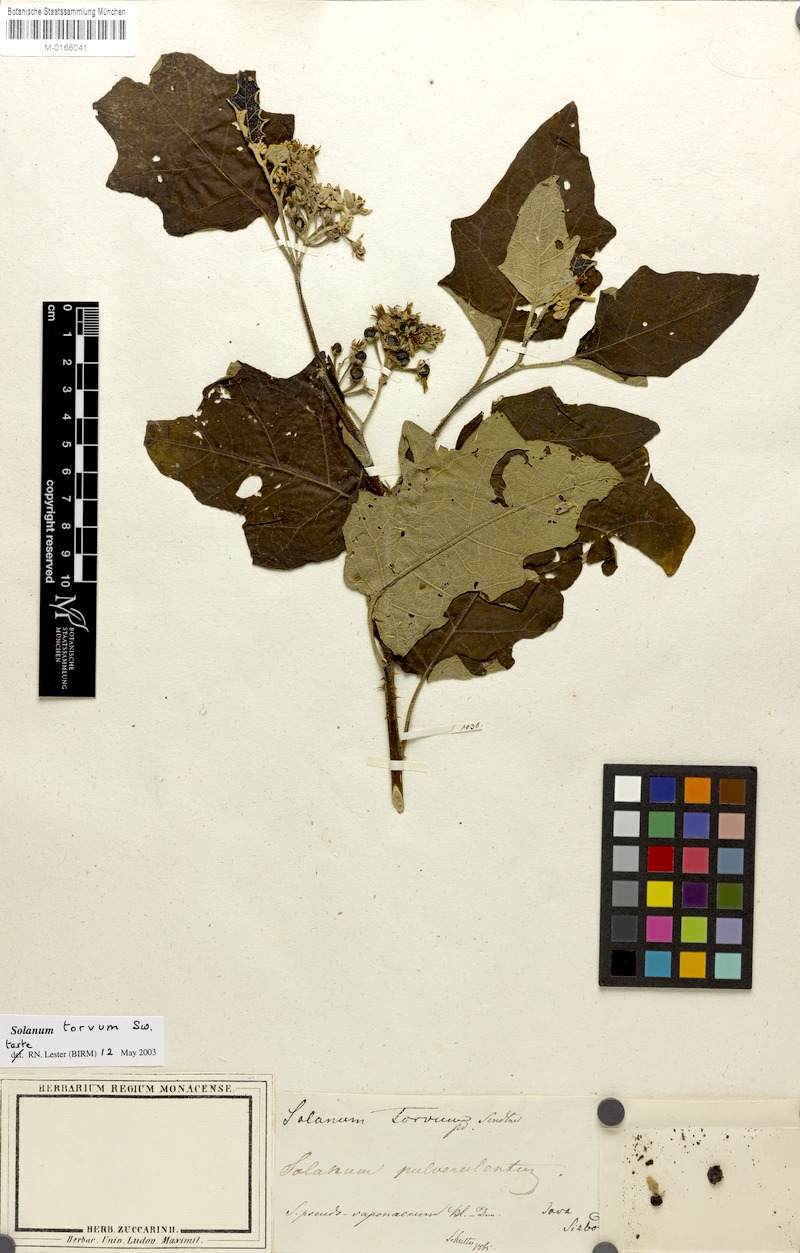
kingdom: Plantae
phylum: Tracheophyta
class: Magnoliopsida
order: Solanales
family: Solanaceae
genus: Solanum
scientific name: Solanum torvum
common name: Turkey berry
